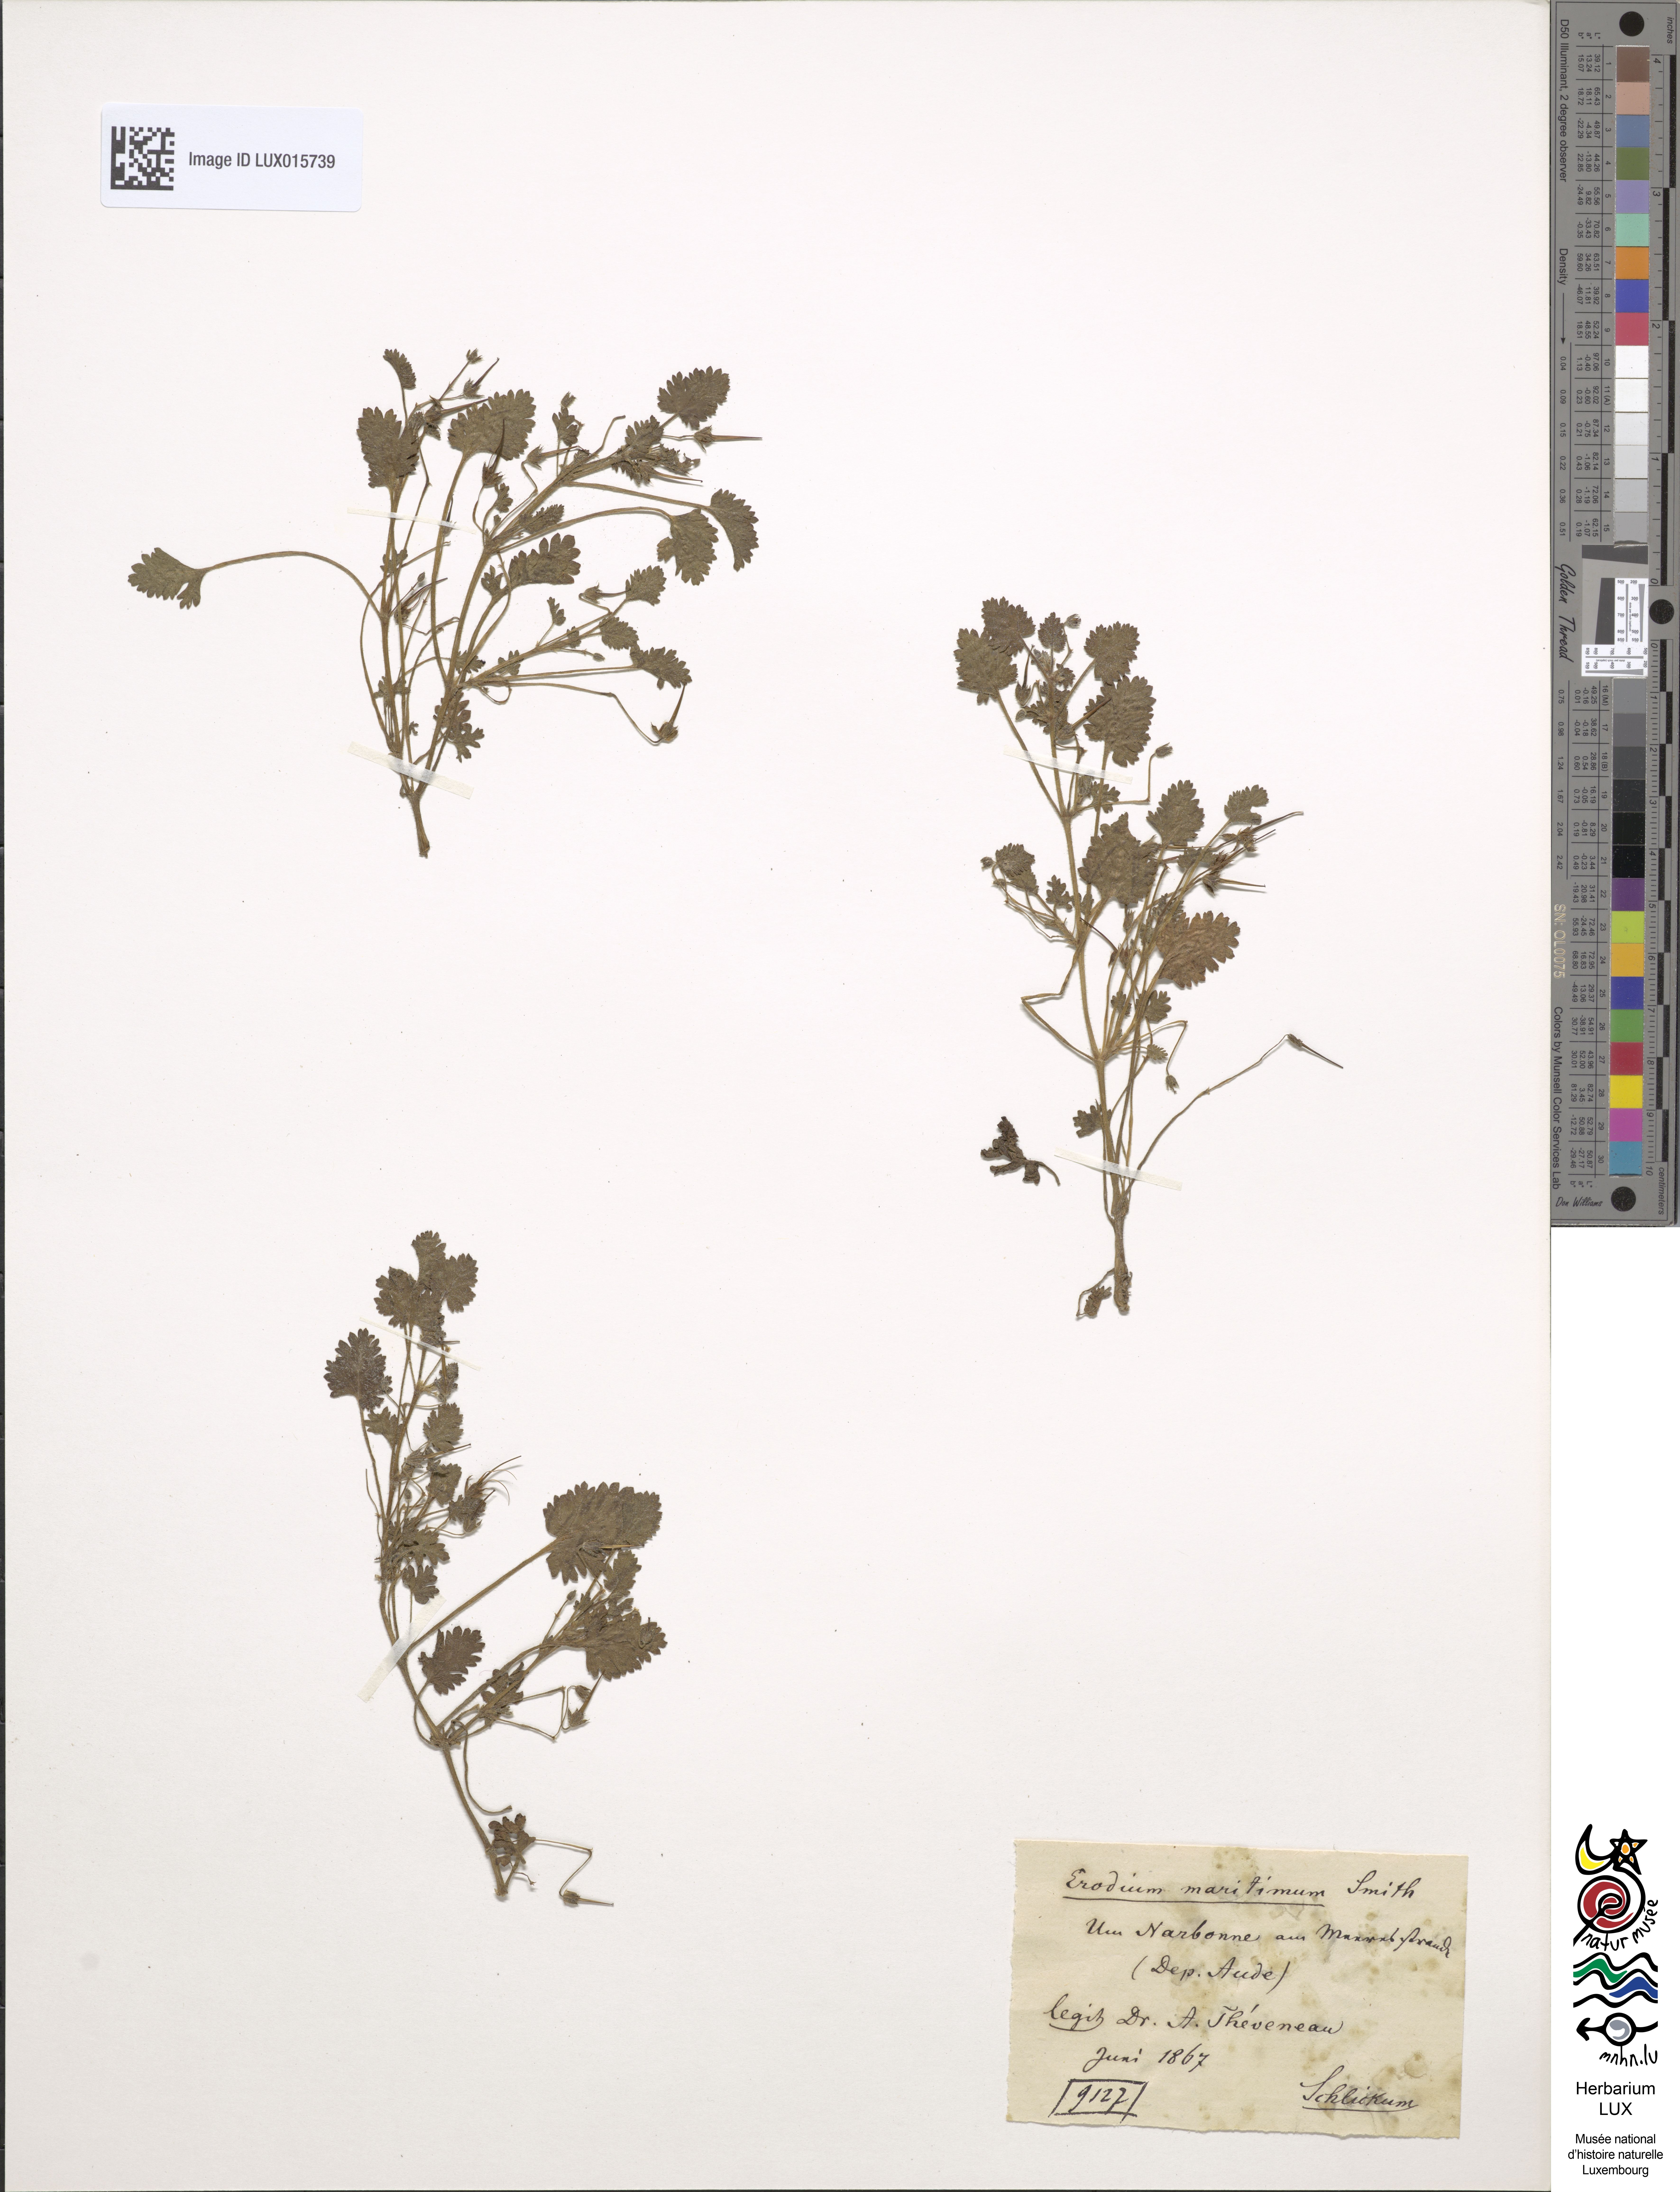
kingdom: Plantae
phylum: Tracheophyta
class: Magnoliopsida
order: Geraniales
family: Geraniaceae
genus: Erodium
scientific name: Erodium maritimum
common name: Sea stork's-bill
